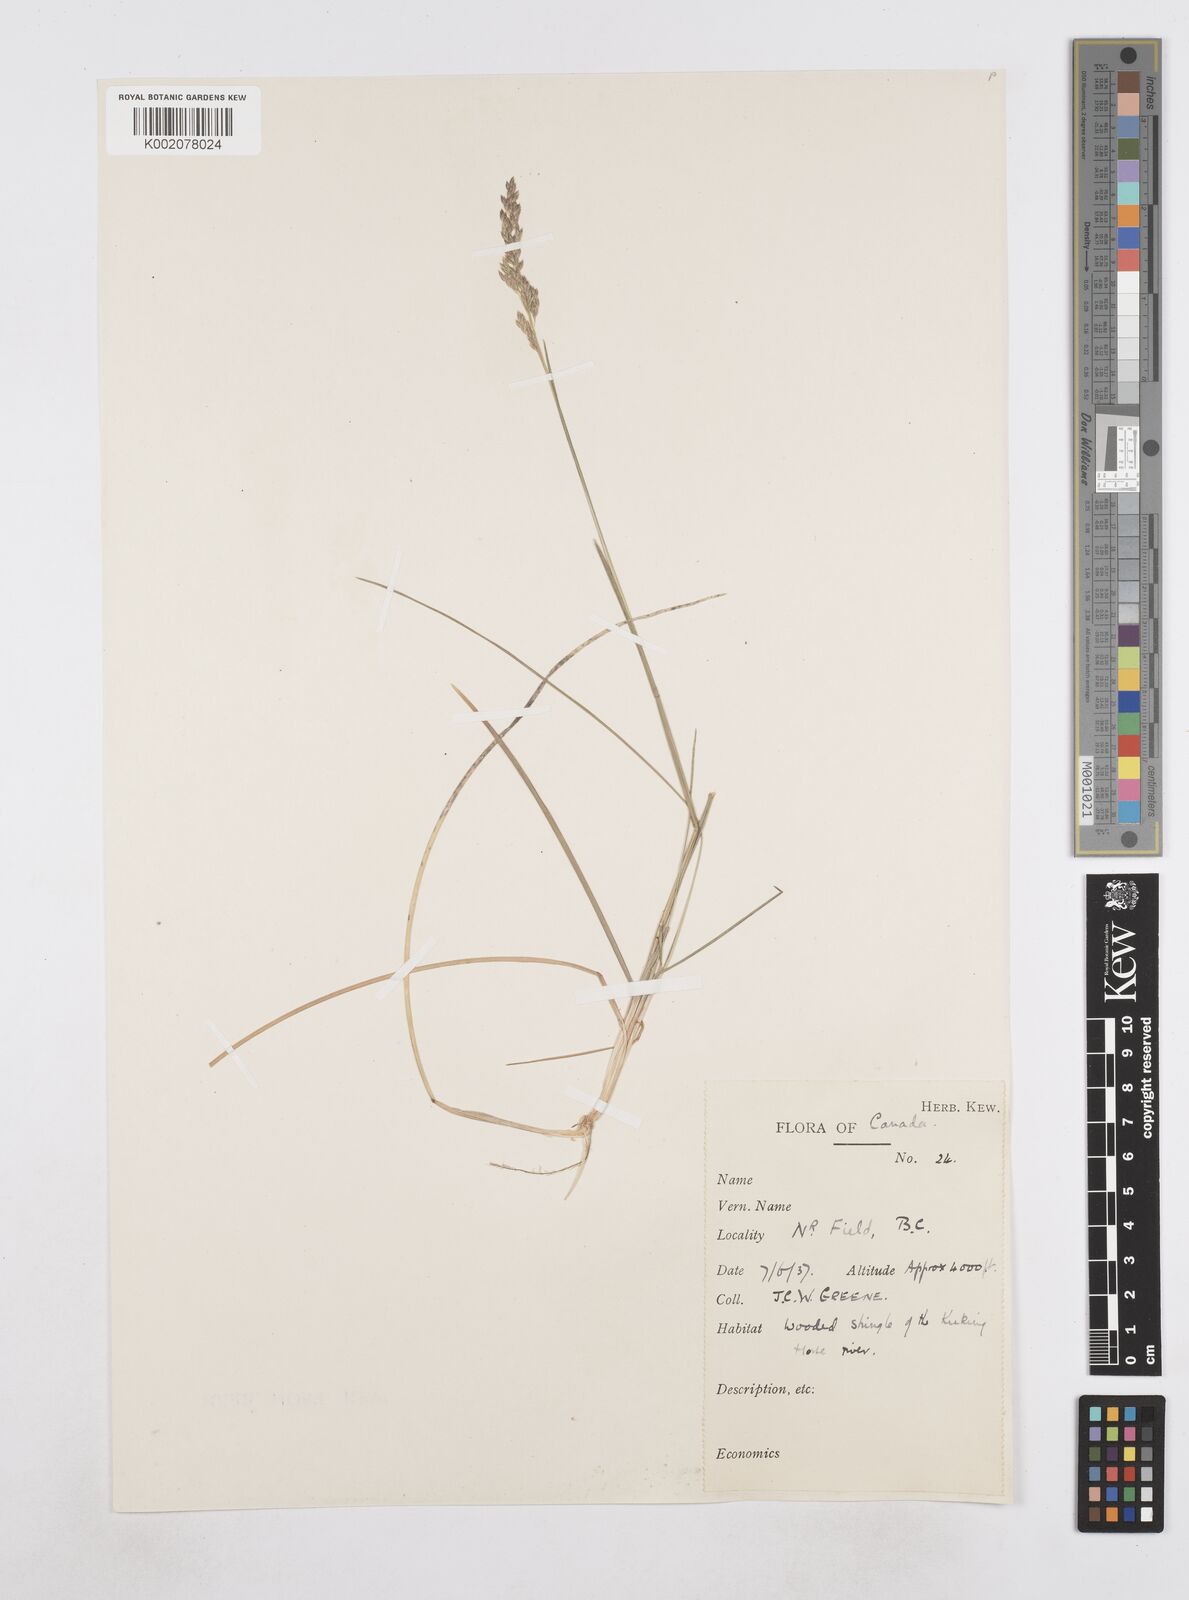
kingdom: Plantae
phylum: Tracheophyta
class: Liliopsida
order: Poales
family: Poaceae
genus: Poa
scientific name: Poa
